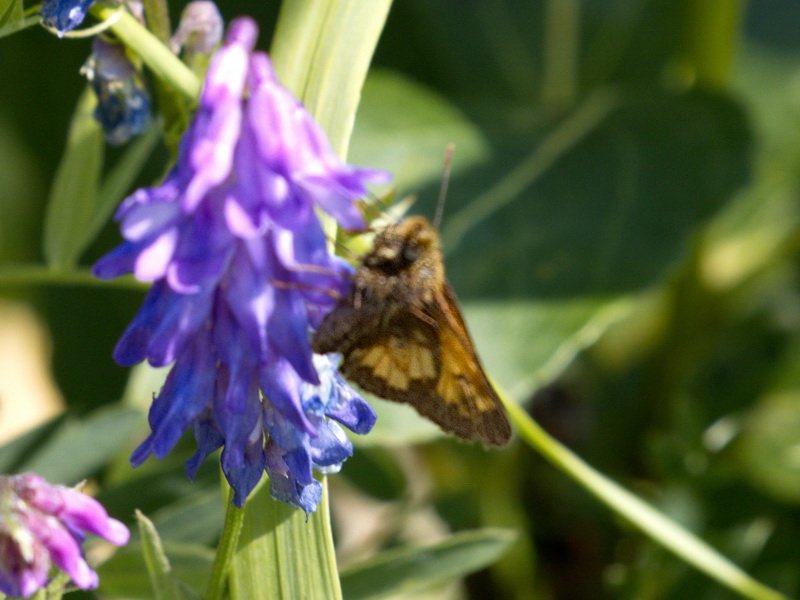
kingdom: Animalia
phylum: Arthropoda
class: Insecta
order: Lepidoptera
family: Hesperiidae
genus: Lon
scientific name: Lon hobomok
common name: Hobomok Skipper
